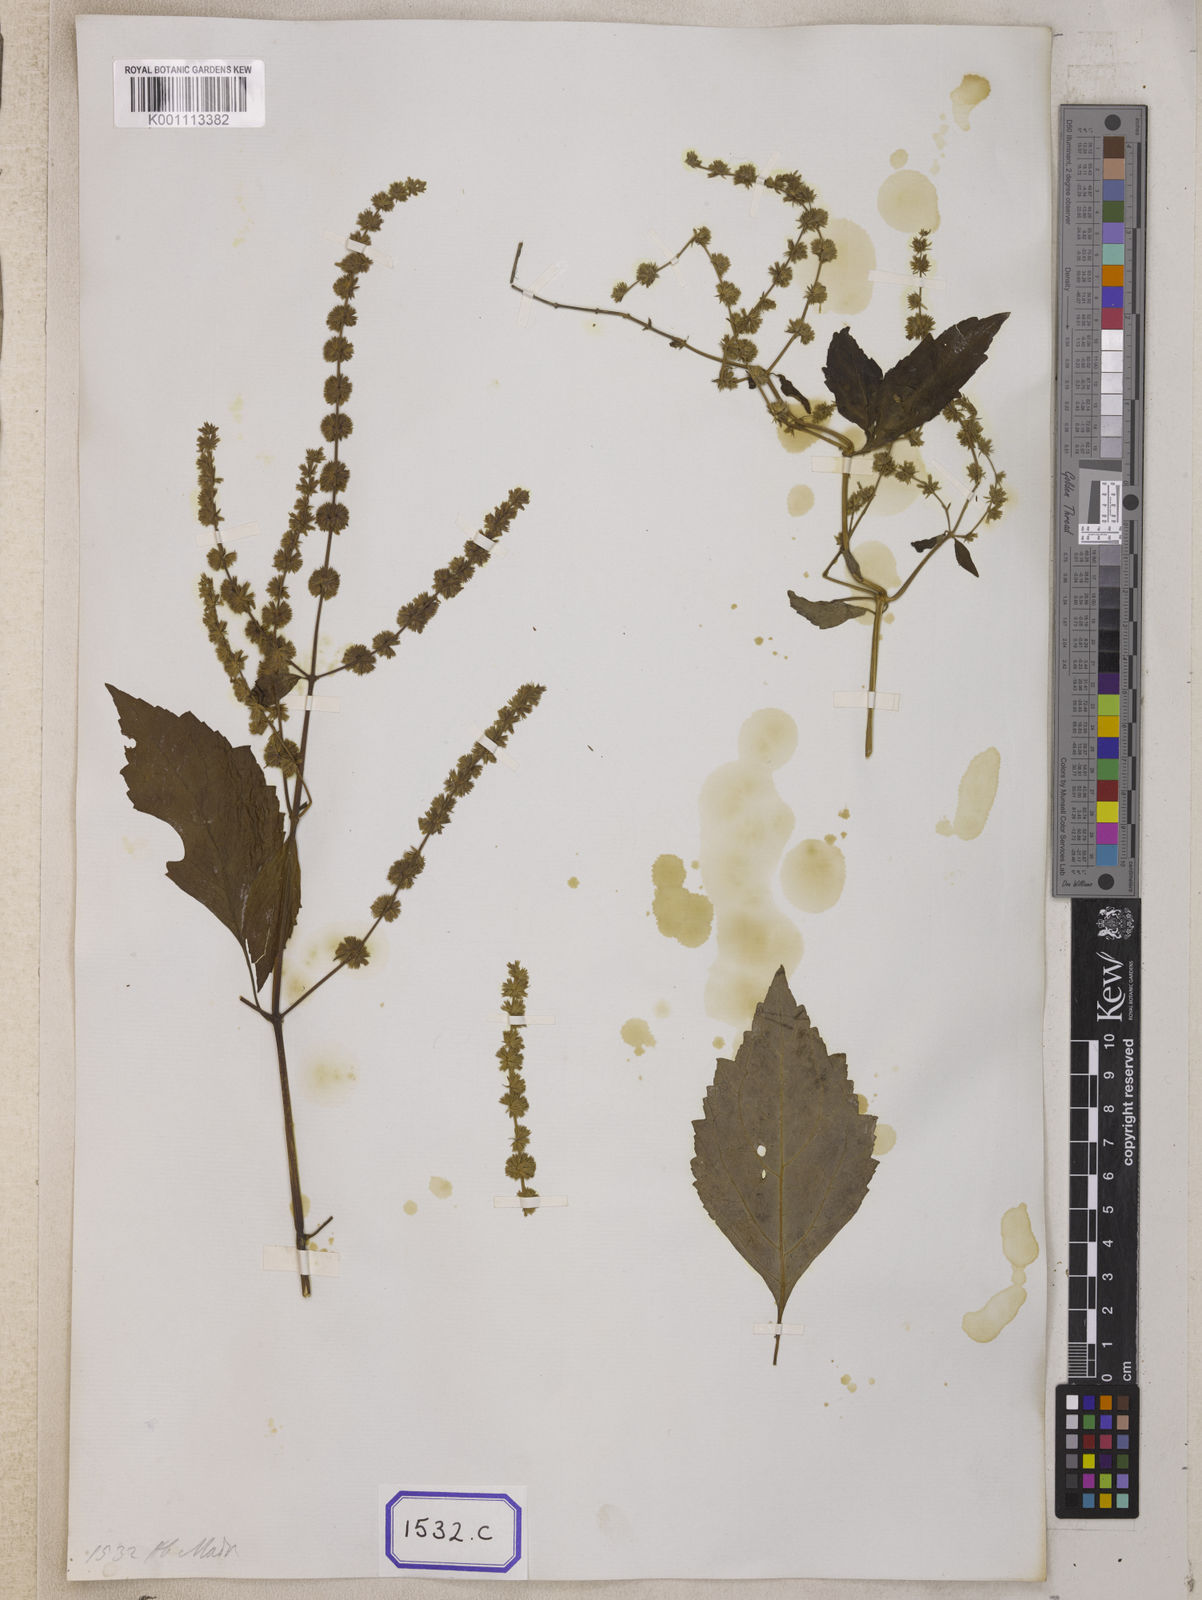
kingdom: Plantae
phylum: Tracheophyta
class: Magnoliopsida
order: Lamiales
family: Lamiaceae
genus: Pogostemon
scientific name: Pogostemon heyneanus
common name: Indian patchouli
